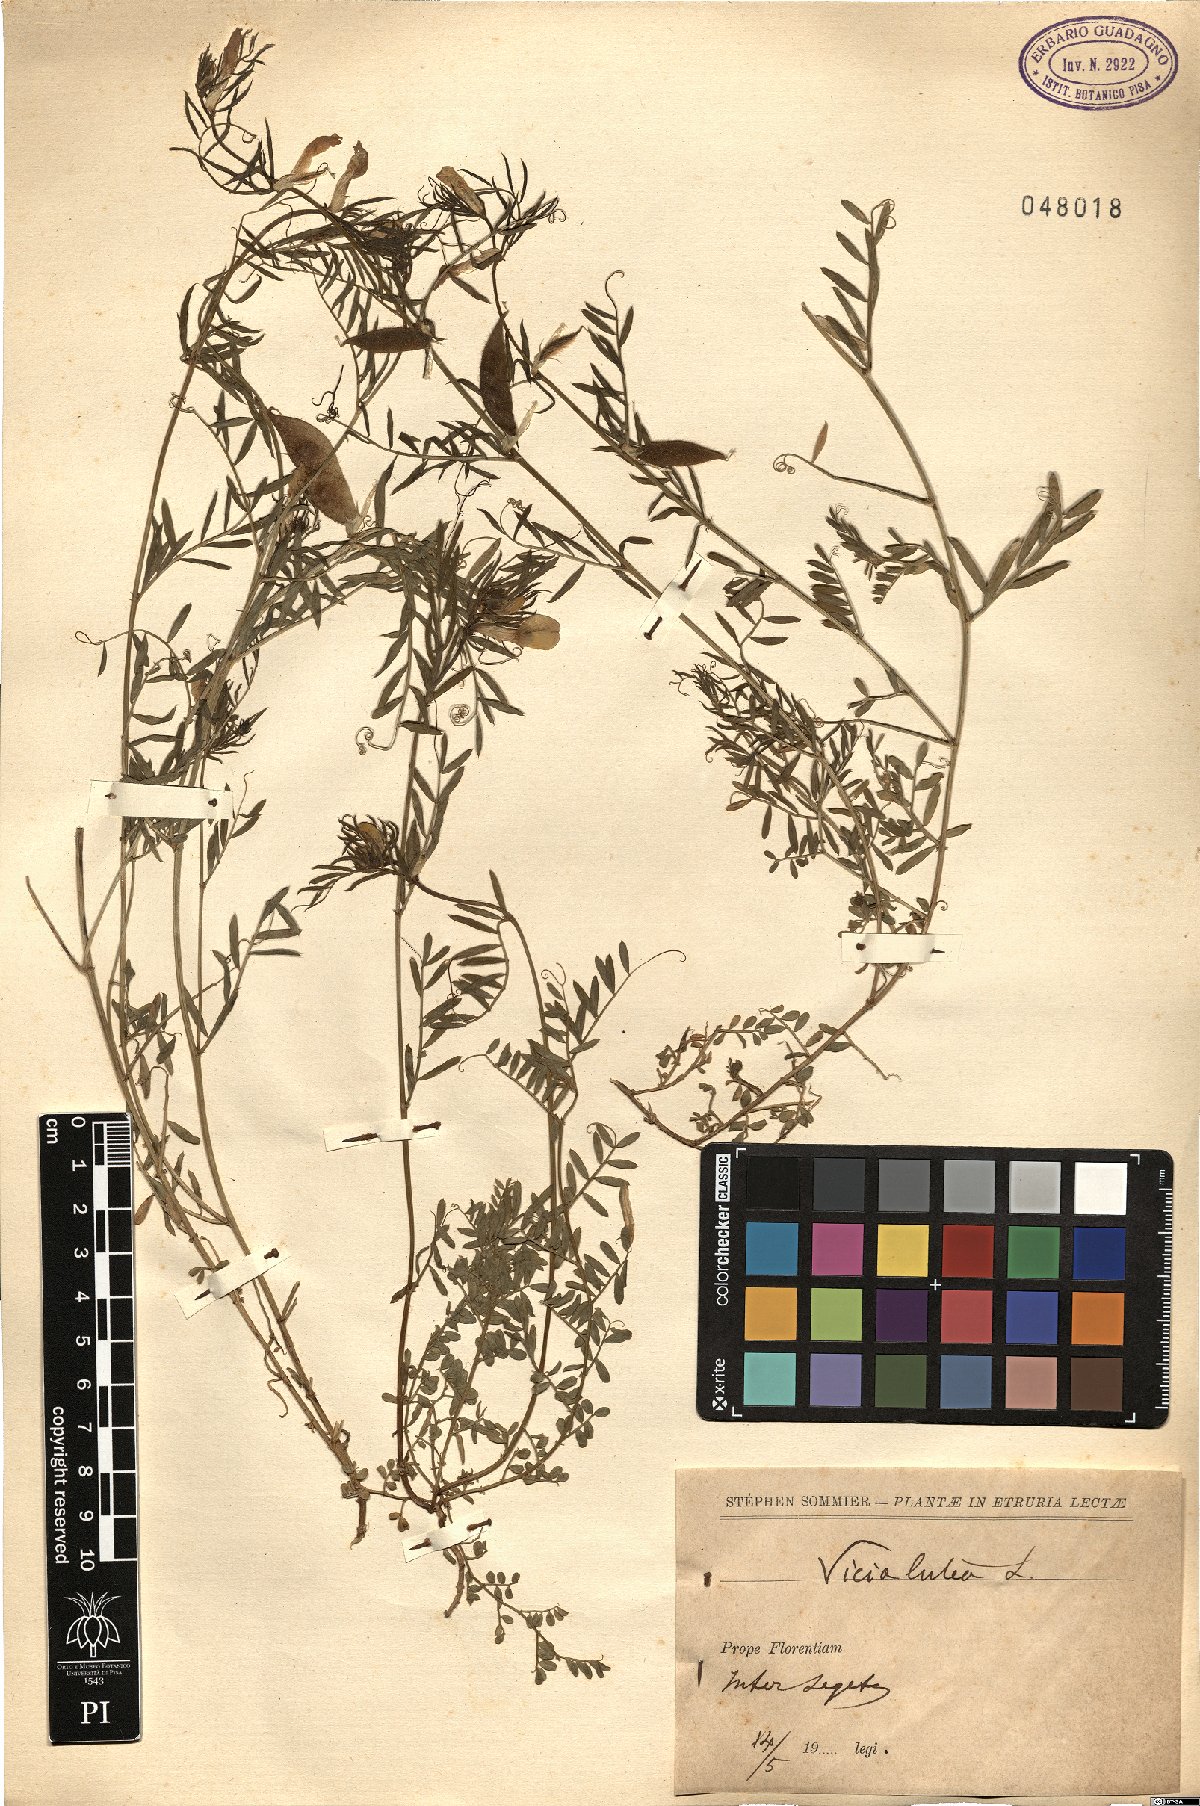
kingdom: Plantae
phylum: Tracheophyta
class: Magnoliopsida
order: Fabales
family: Fabaceae
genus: Vicia
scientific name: Vicia lutea
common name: Smooth yellow vetch
